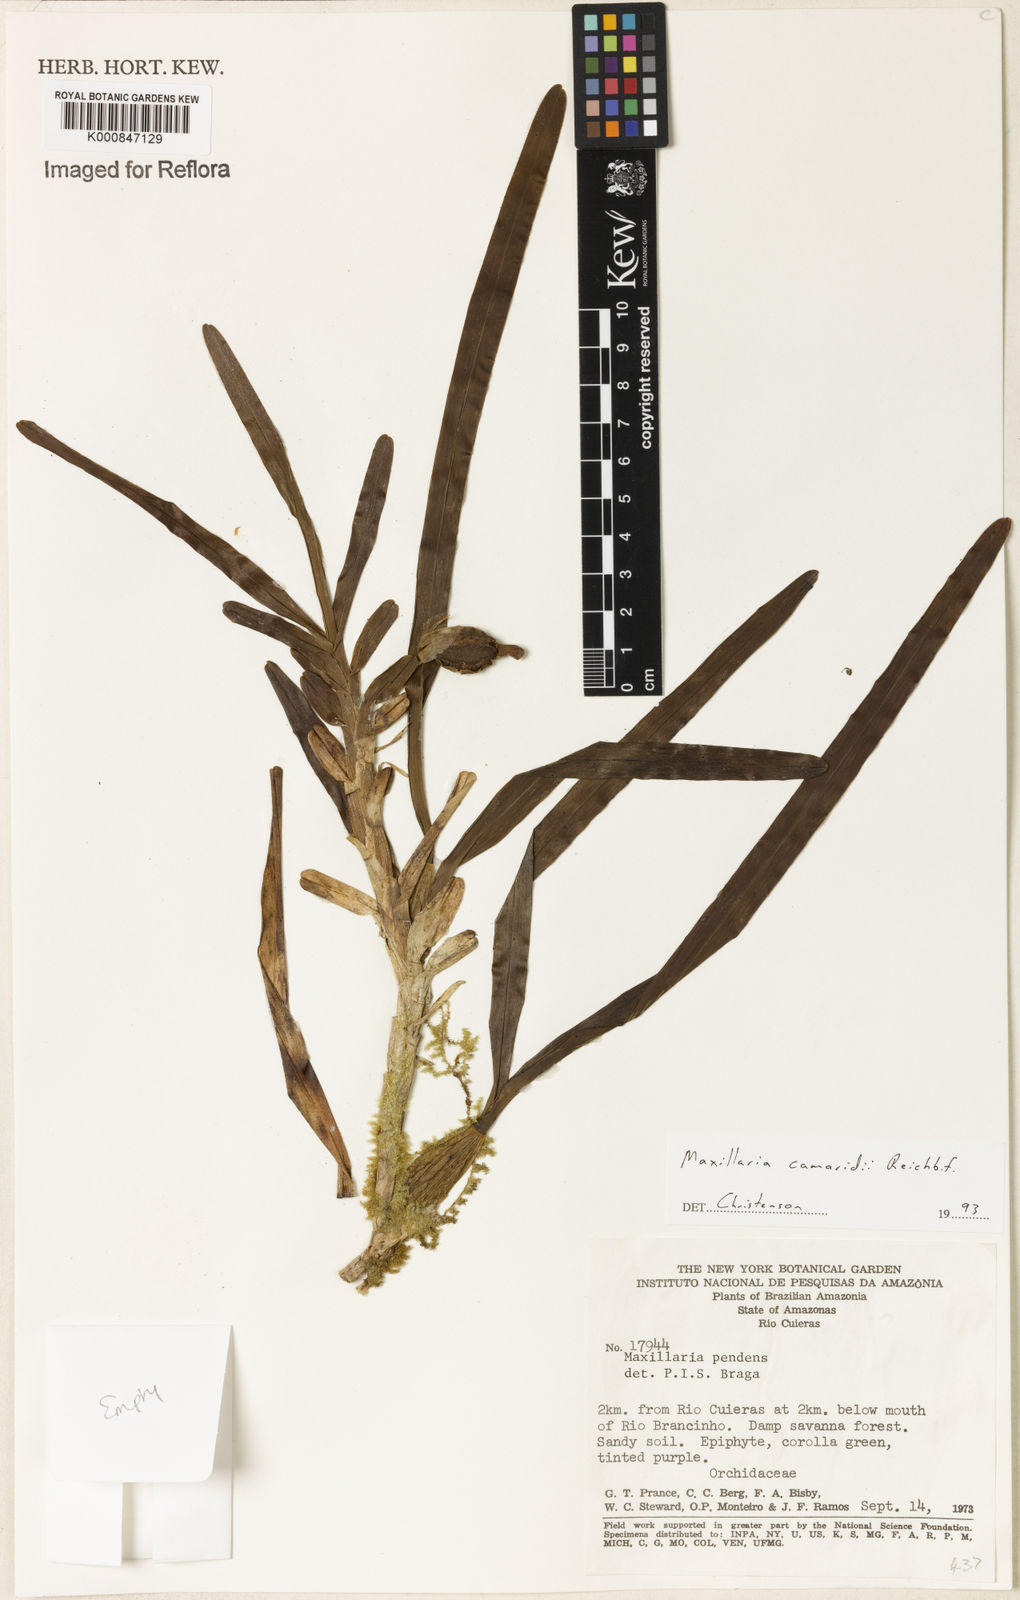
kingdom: Plantae
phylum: Tracheophyta
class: Liliopsida
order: Asparagales
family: Orchidaceae
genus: Maxillaria
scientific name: Maxillaria lutescens
